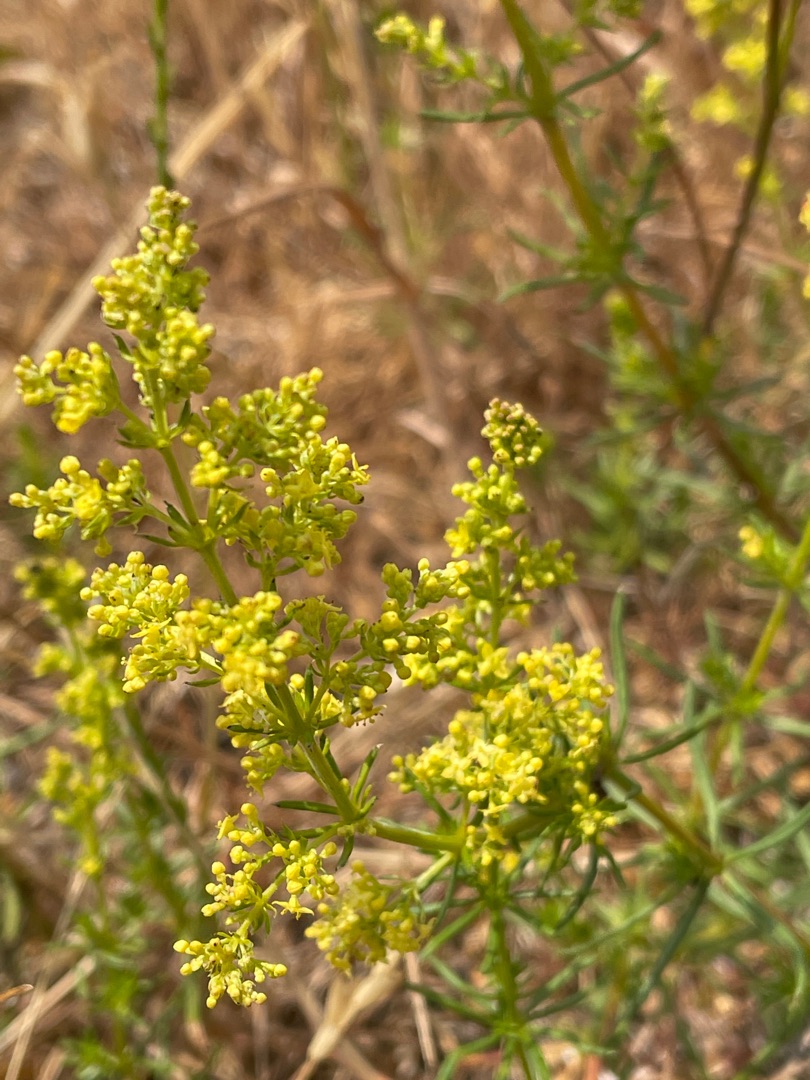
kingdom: Plantae
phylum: Tracheophyta
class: Magnoliopsida
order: Gentianales
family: Rubiaceae
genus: Galium
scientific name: Galium verum
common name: Gul snerre
